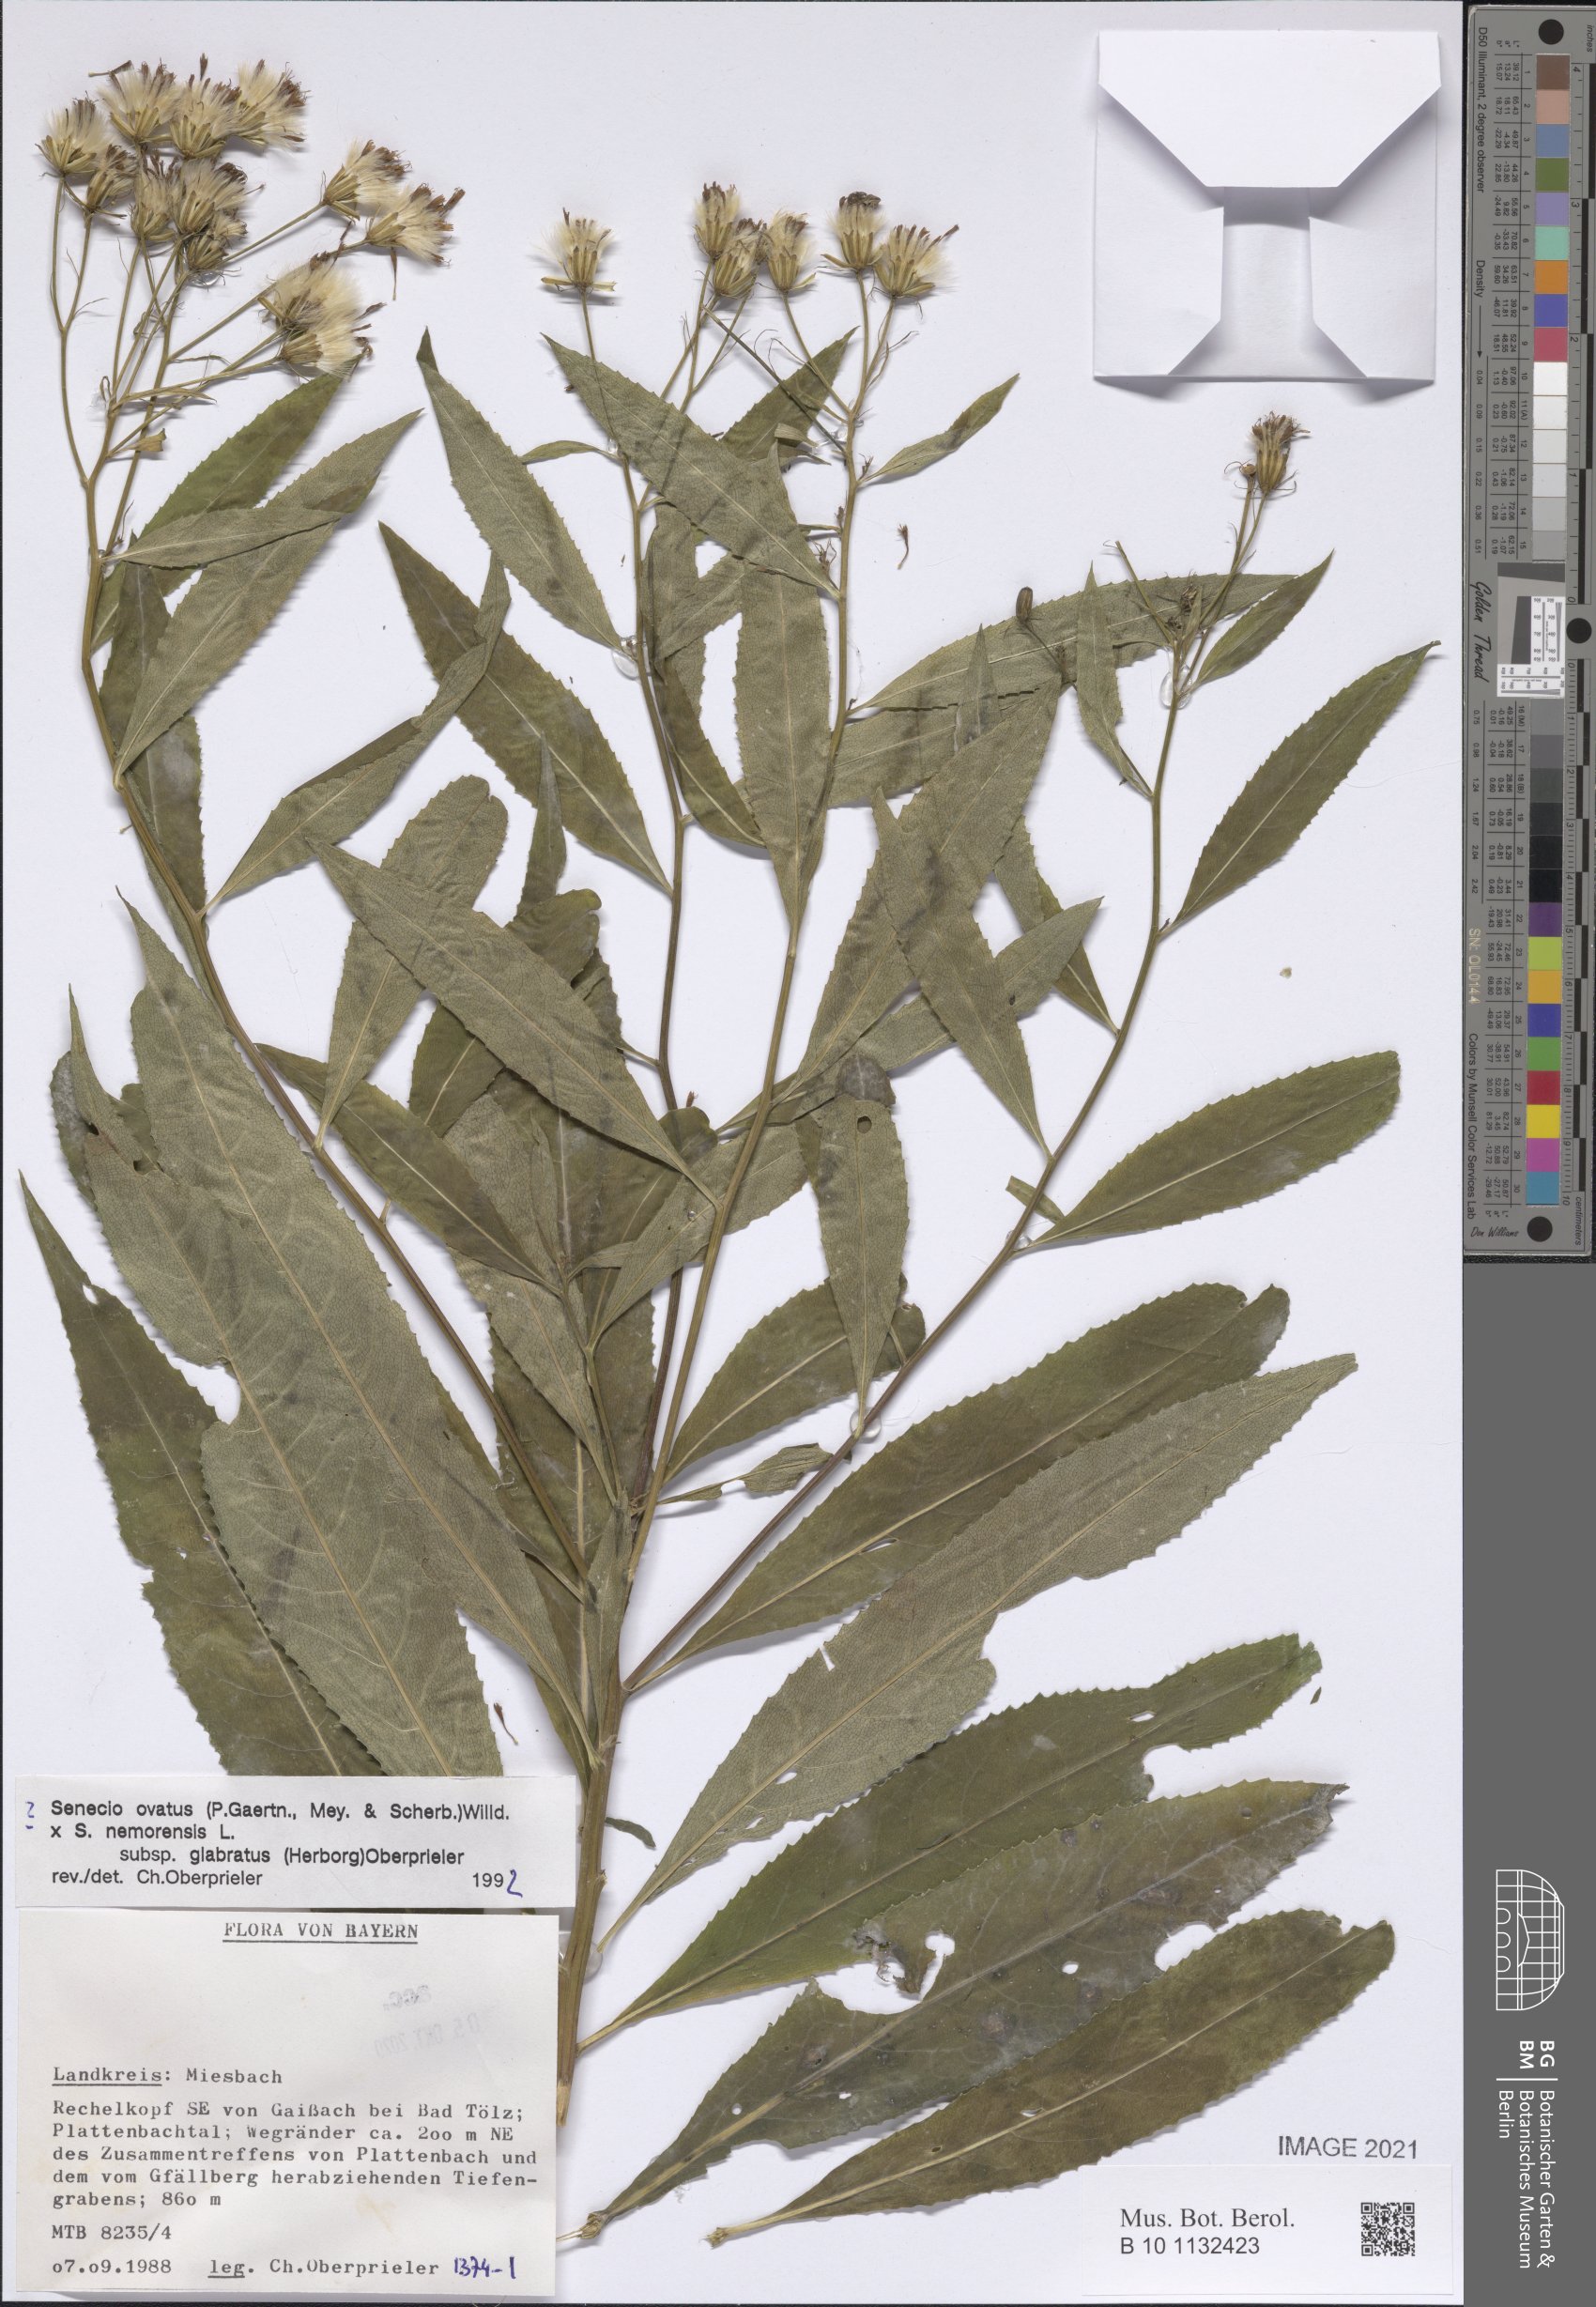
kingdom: Plantae
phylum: Tracheophyta
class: Magnoliopsida
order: Asterales
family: Asteraceae
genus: Senecio
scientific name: Senecio ovatus
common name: Wood ragwort
